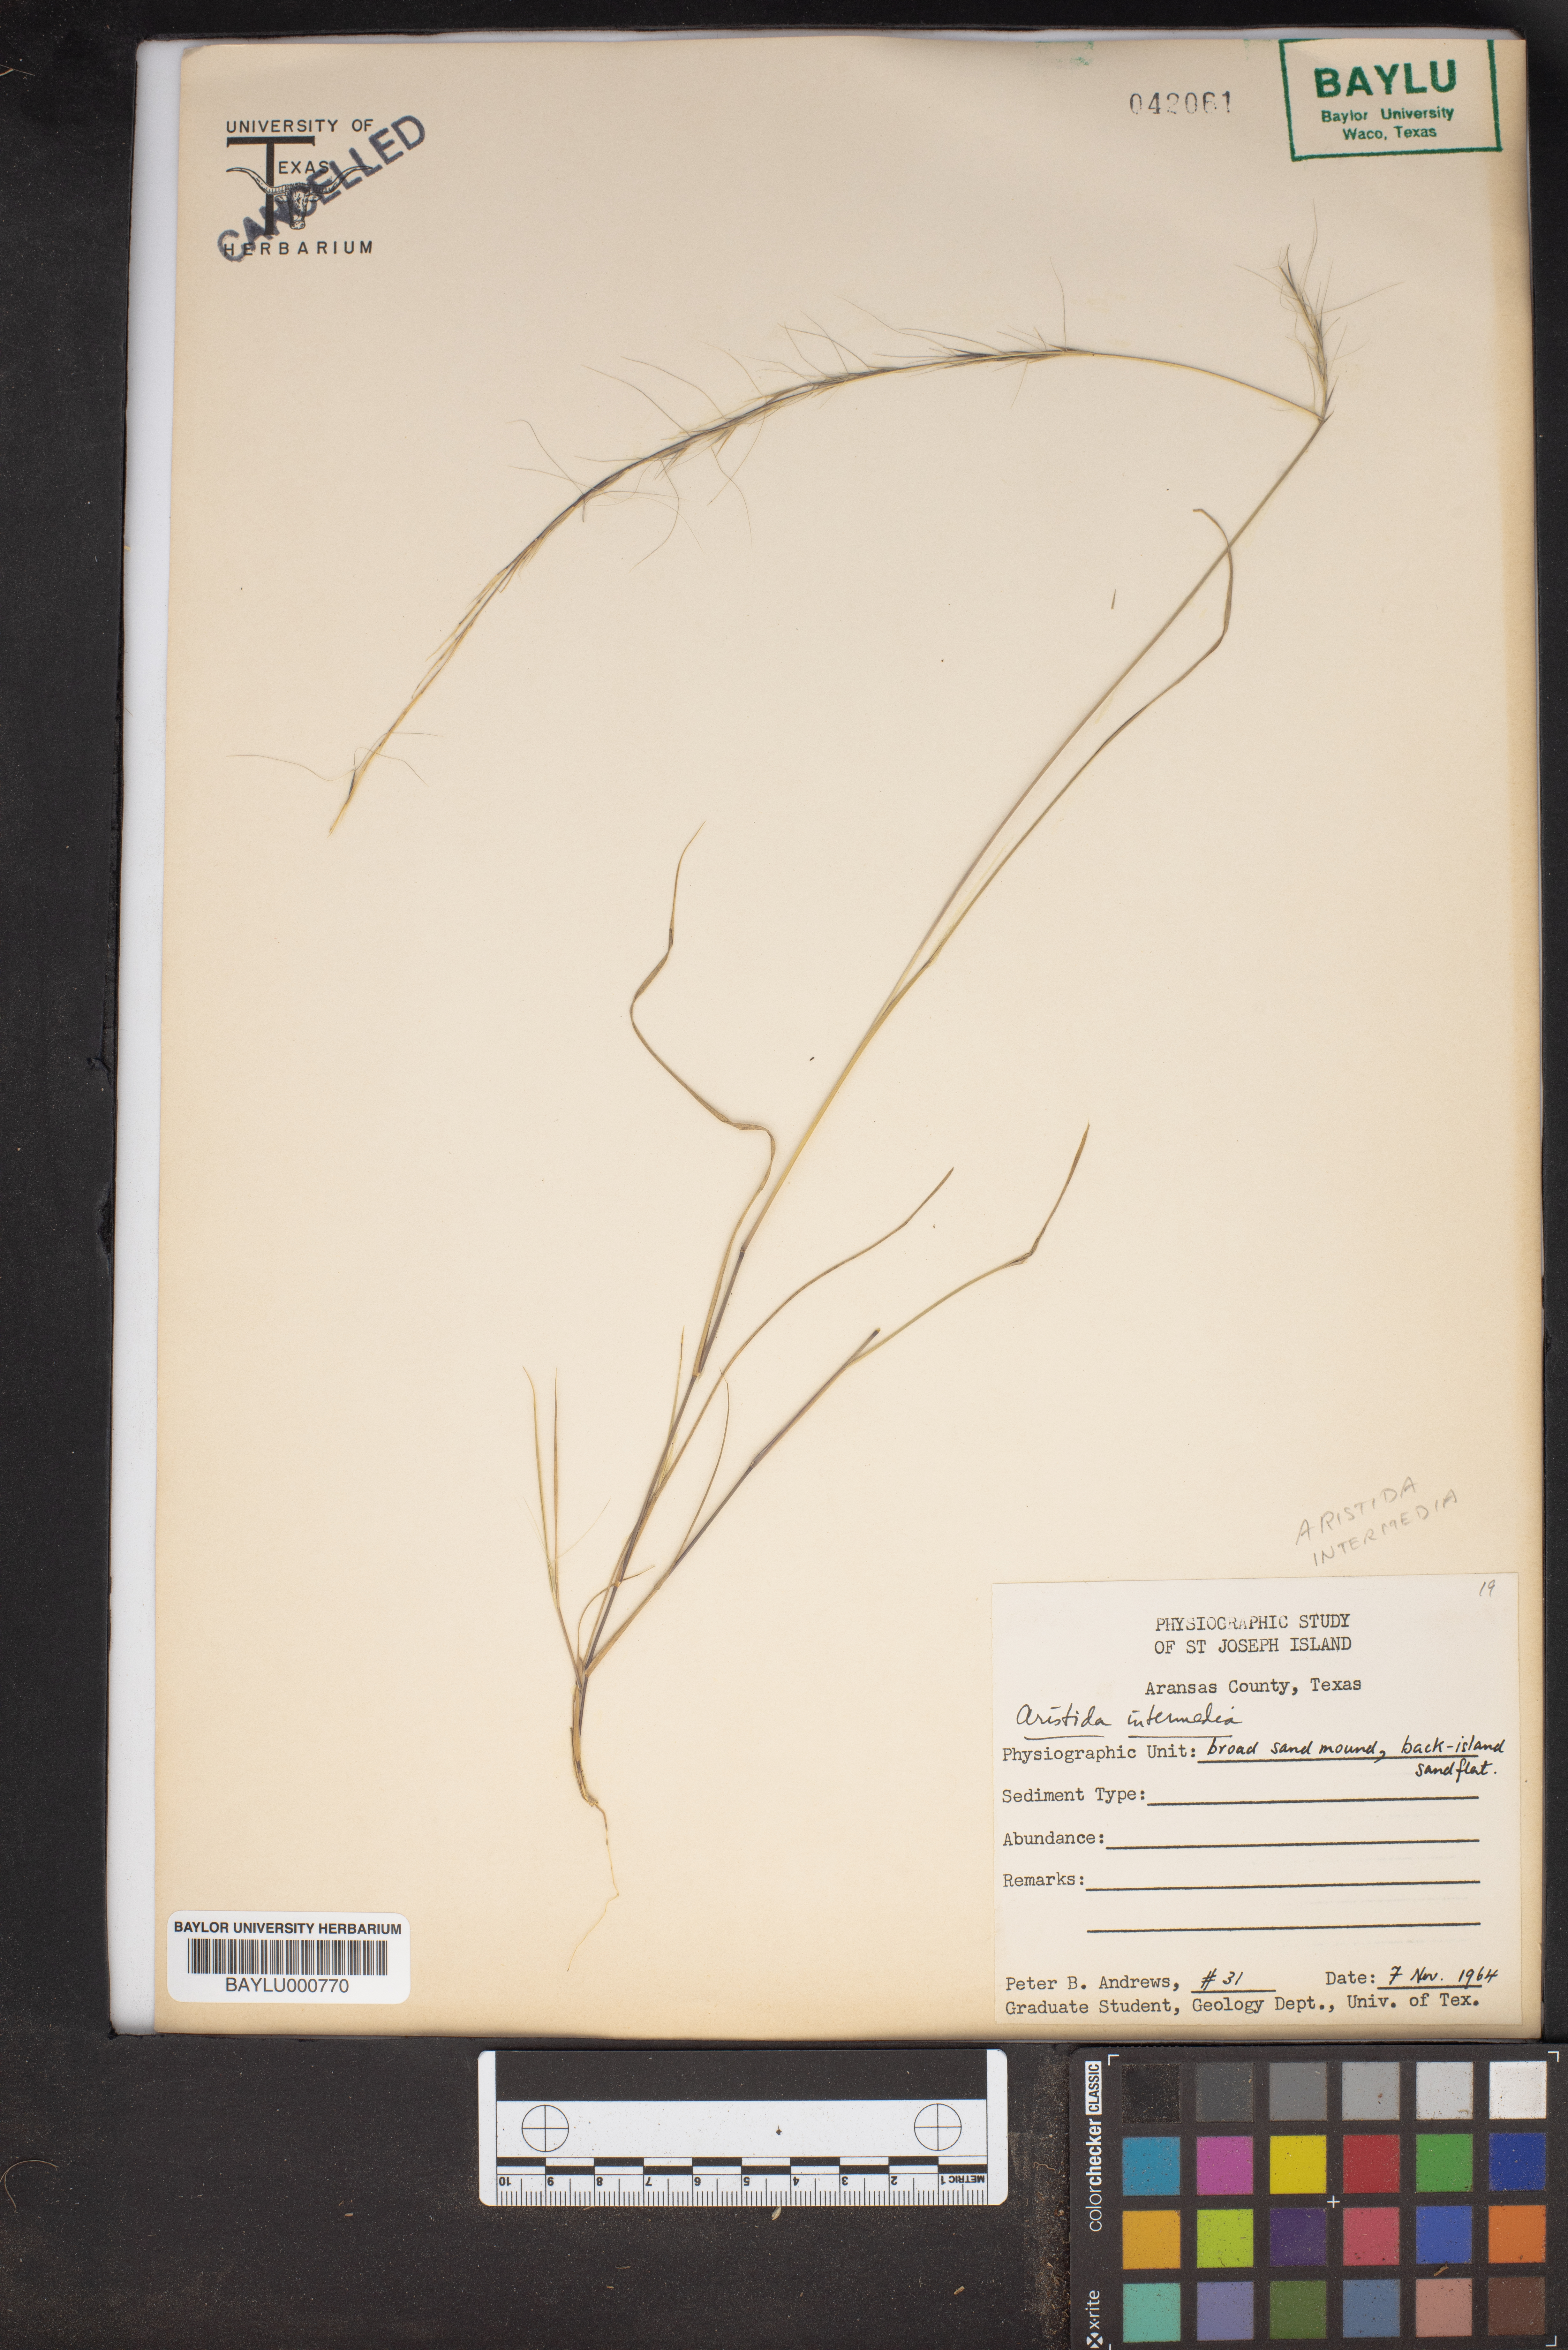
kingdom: Plantae
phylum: Tracheophyta
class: Liliopsida
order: Poales
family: Poaceae
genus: Aristida
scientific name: Aristida longespica
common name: Long-spiked triple-awned grass
